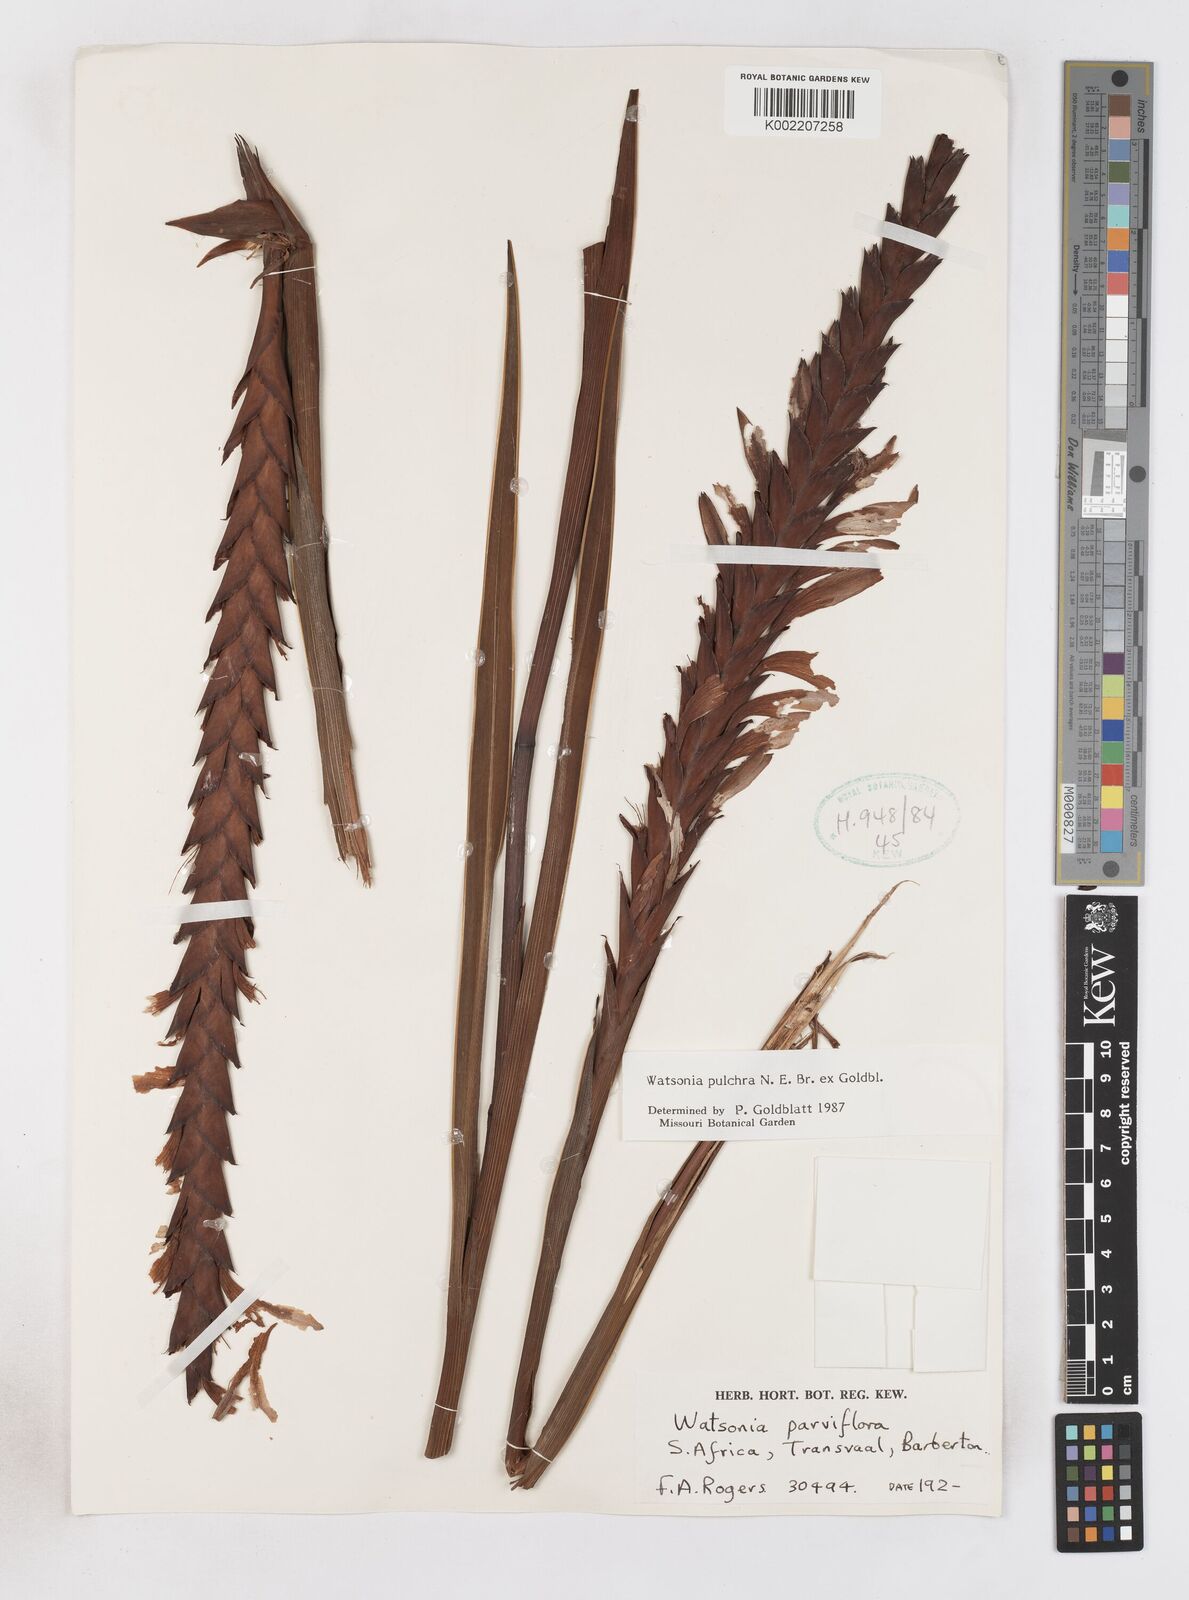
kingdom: Plantae
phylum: Tracheophyta
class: Liliopsida
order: Asparagales
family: Iridaceae
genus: Watsonia
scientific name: Watsonia pulchra
